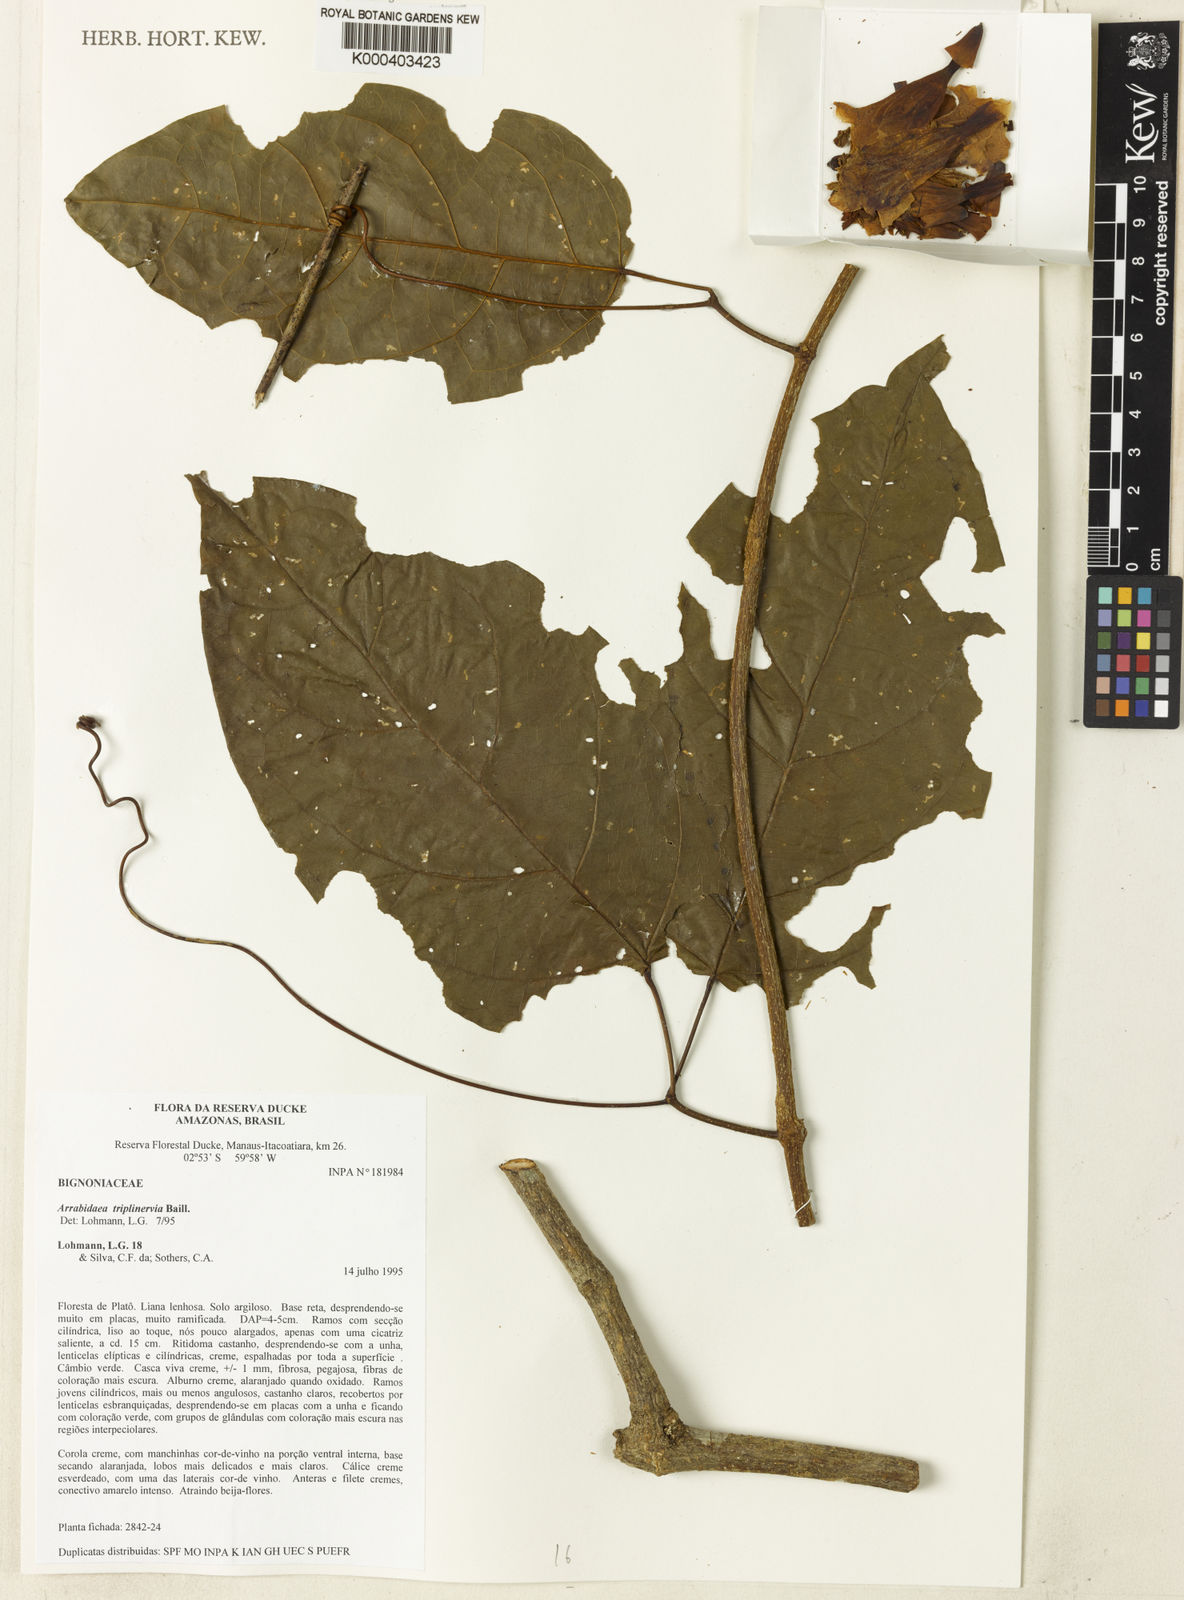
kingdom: Plantae
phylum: Tracheophyta
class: Magnoliopsida
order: Rosales
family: Rhamnaceae
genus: Arrabidaea
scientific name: Arrabidaea
